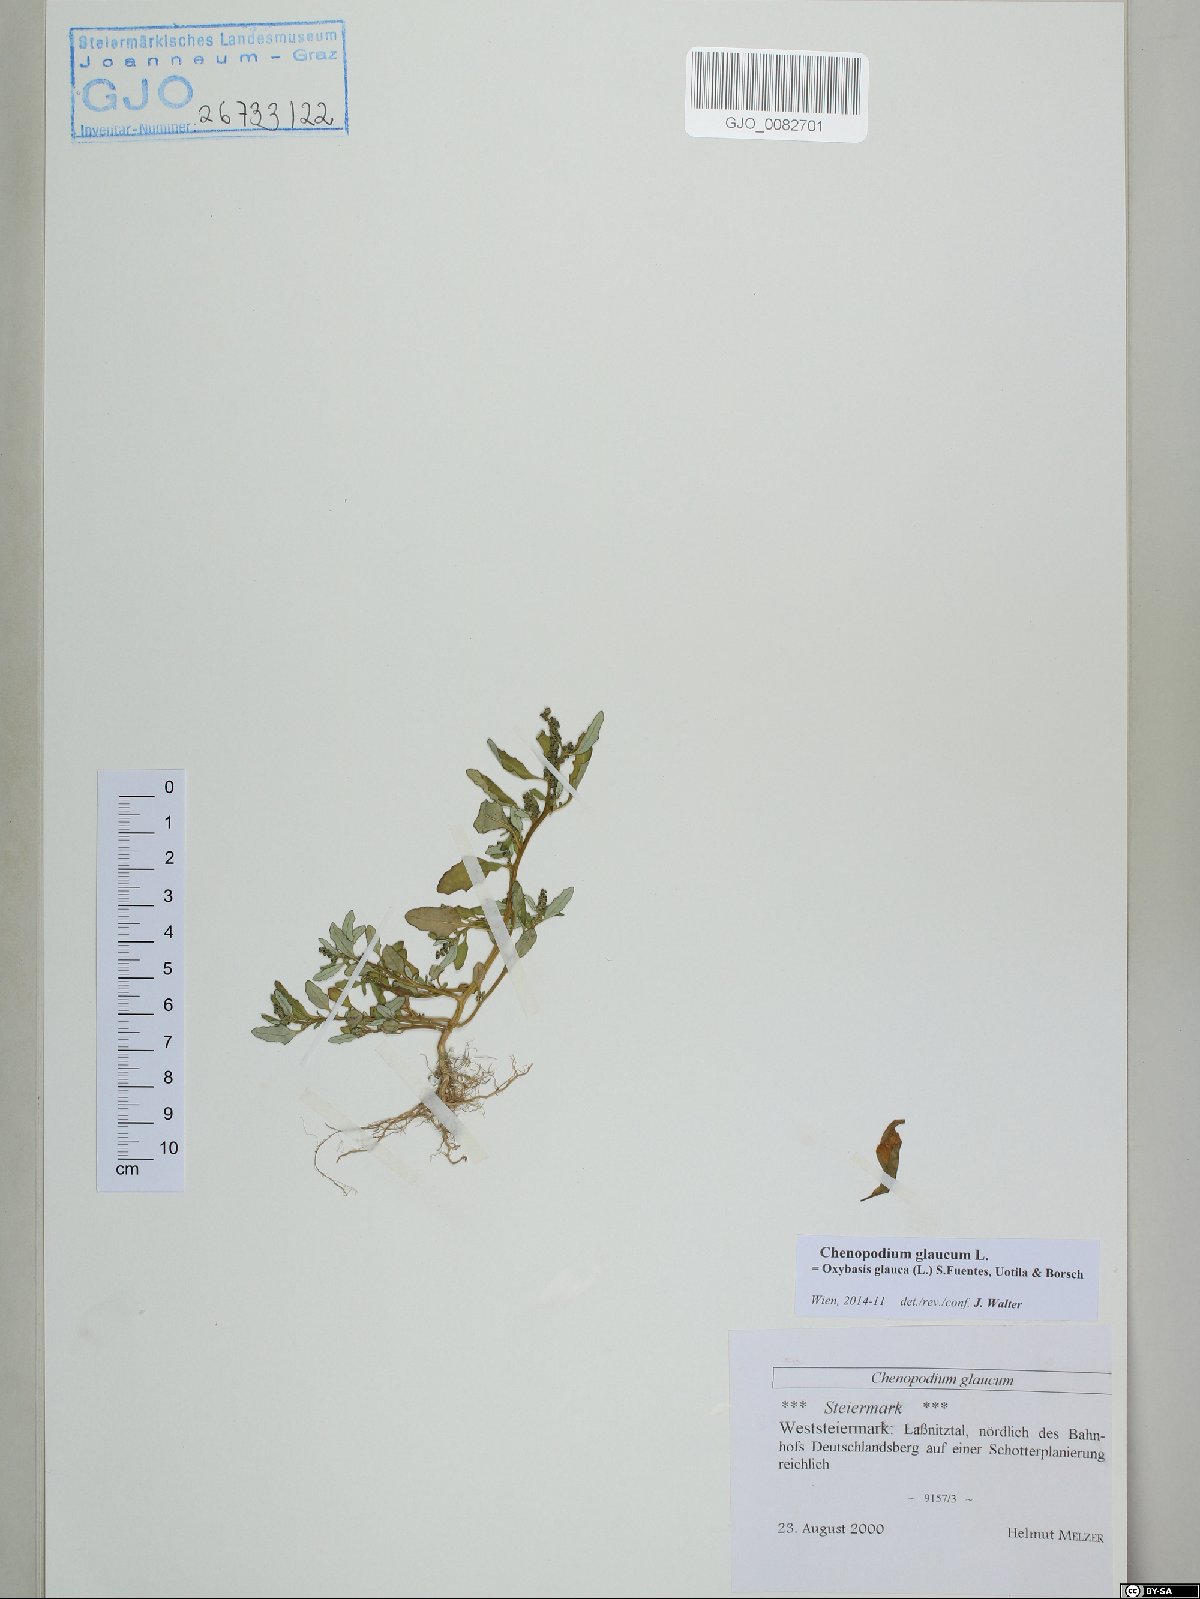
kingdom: Plantae
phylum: Tracheophyta
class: Magnoliopsida
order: Caryophyllales
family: Amaranthaceae
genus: Oxybasis
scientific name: Oxybasis glauca
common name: Glaucous goosefoot
